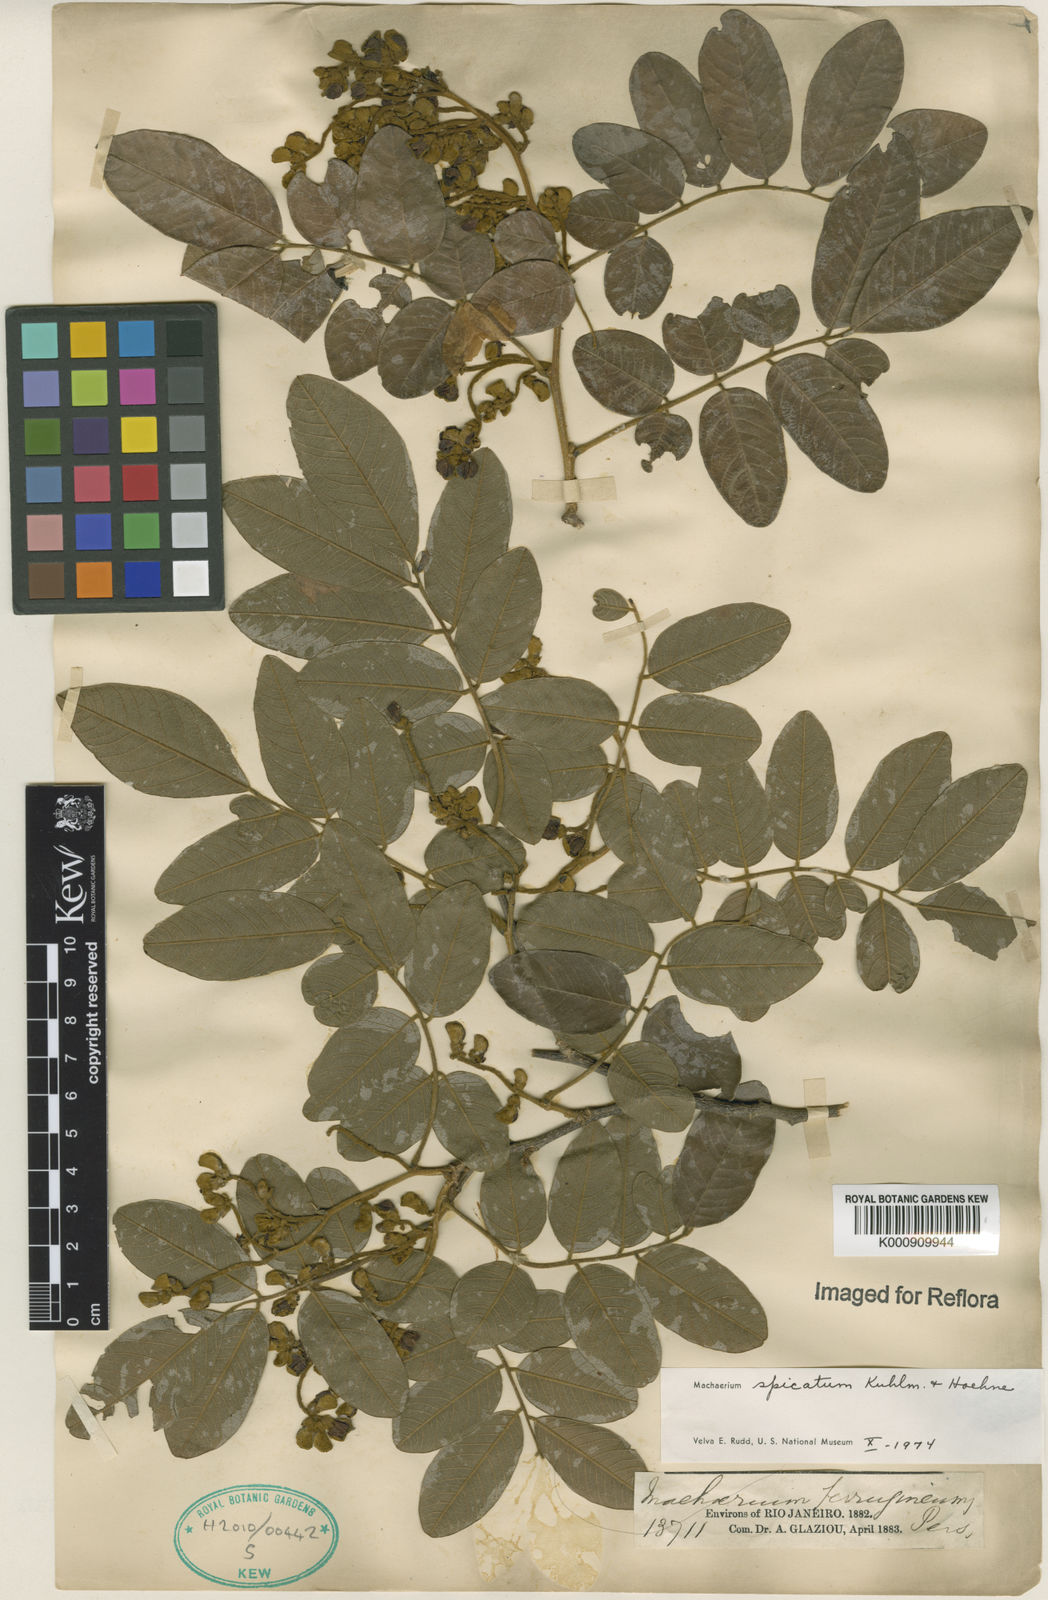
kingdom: Plantae
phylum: Tracheophyta
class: Magnoliopsida
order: Fabales
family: Fabaceae
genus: Machaerium
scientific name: Machaerium spicatum
